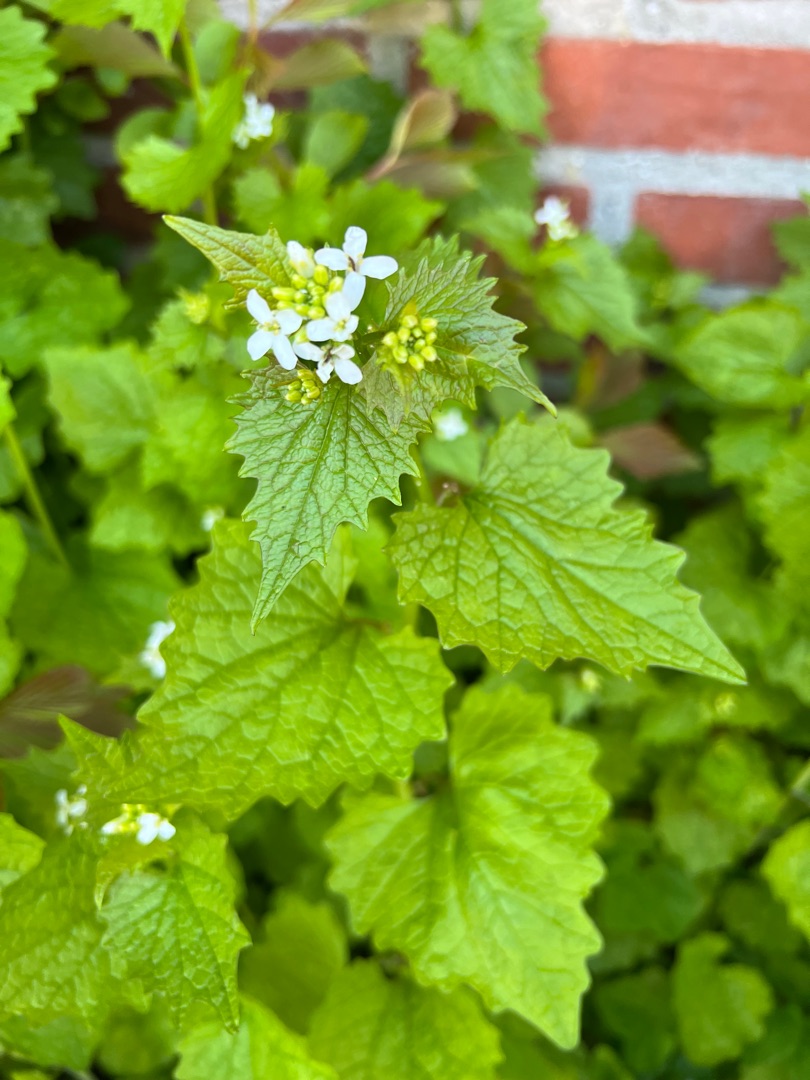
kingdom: Plantae
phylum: Tracheophyta
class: Magnoliopsida
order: Brassicales
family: Brassicaceae
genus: Alliaria
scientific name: Alliaria petiolata
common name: Løgkarse
